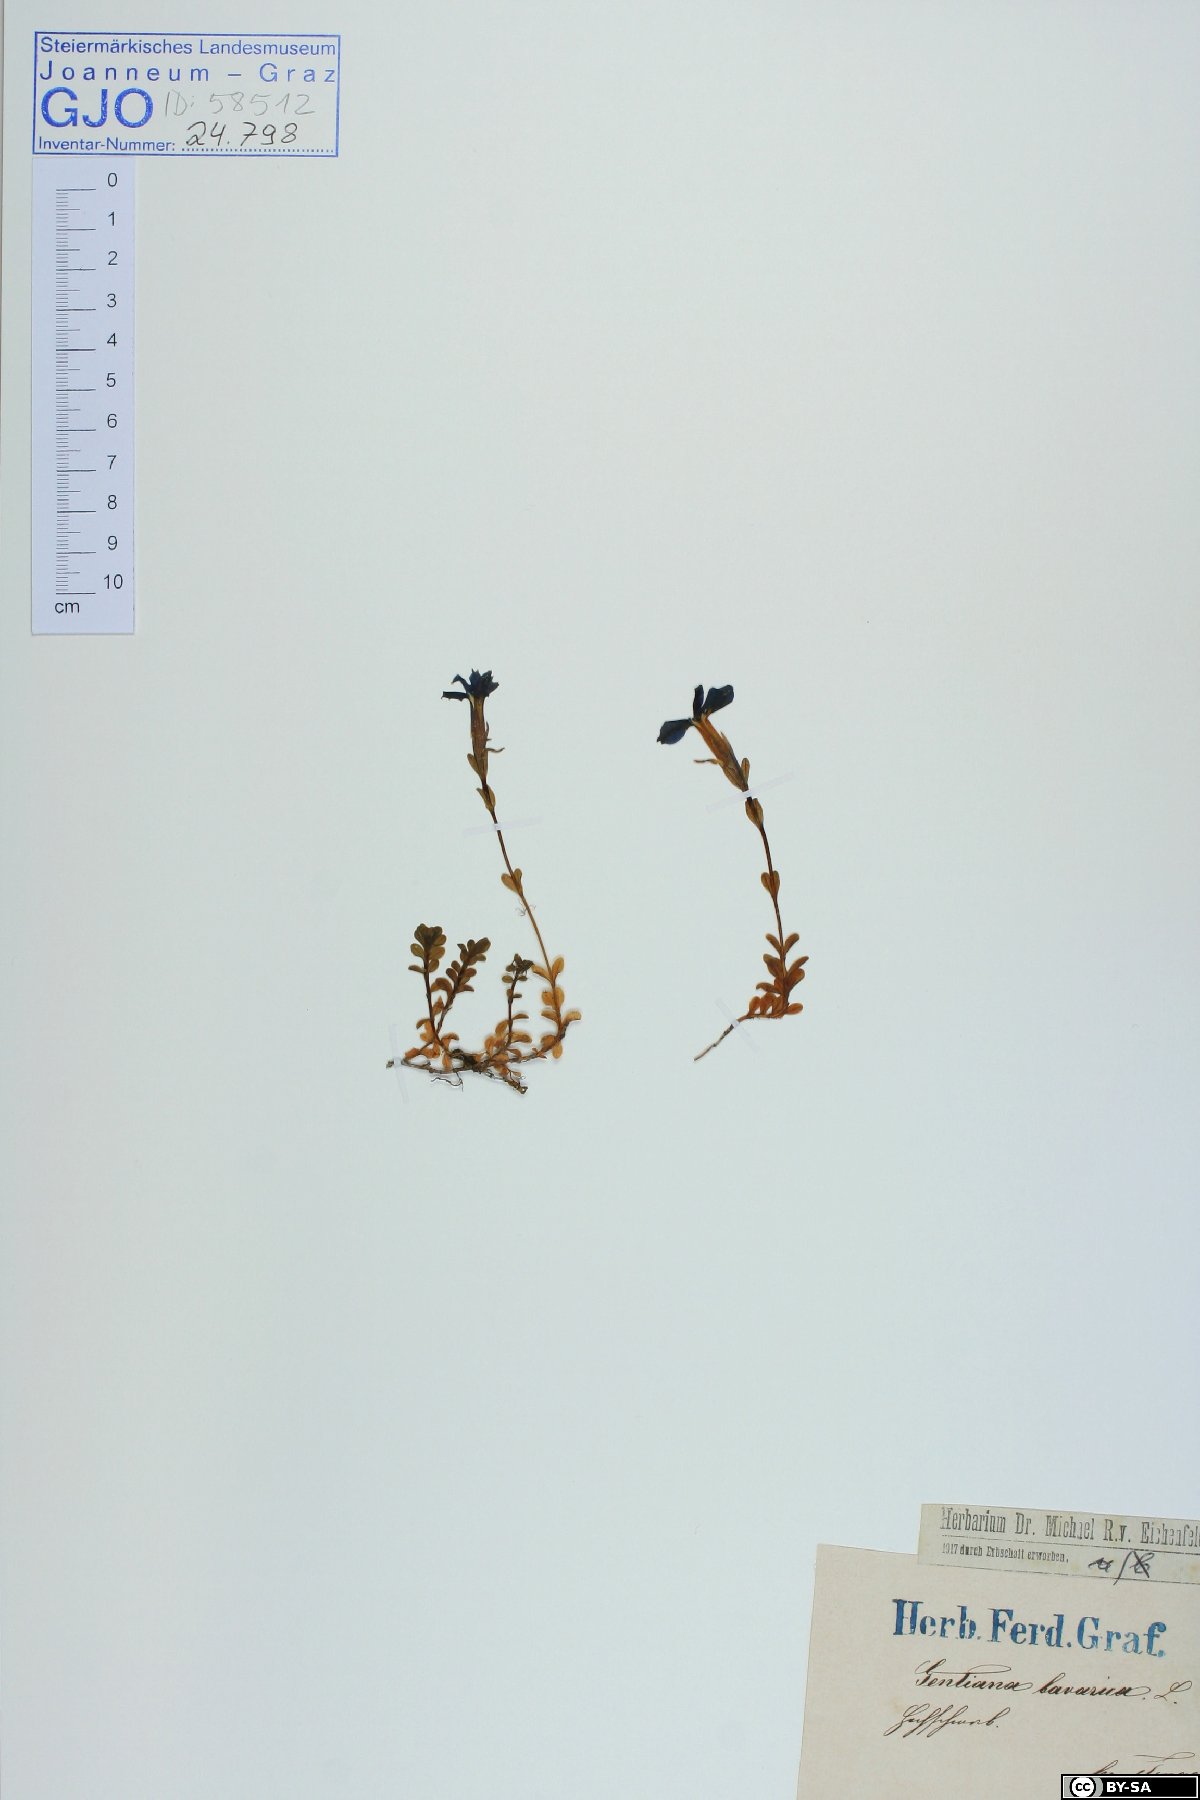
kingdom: Plantae
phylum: Tracheophyta
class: Magnoliopsida
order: Gentianales
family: Gentianaceae
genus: Gentiana
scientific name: Gentiana bavarica
